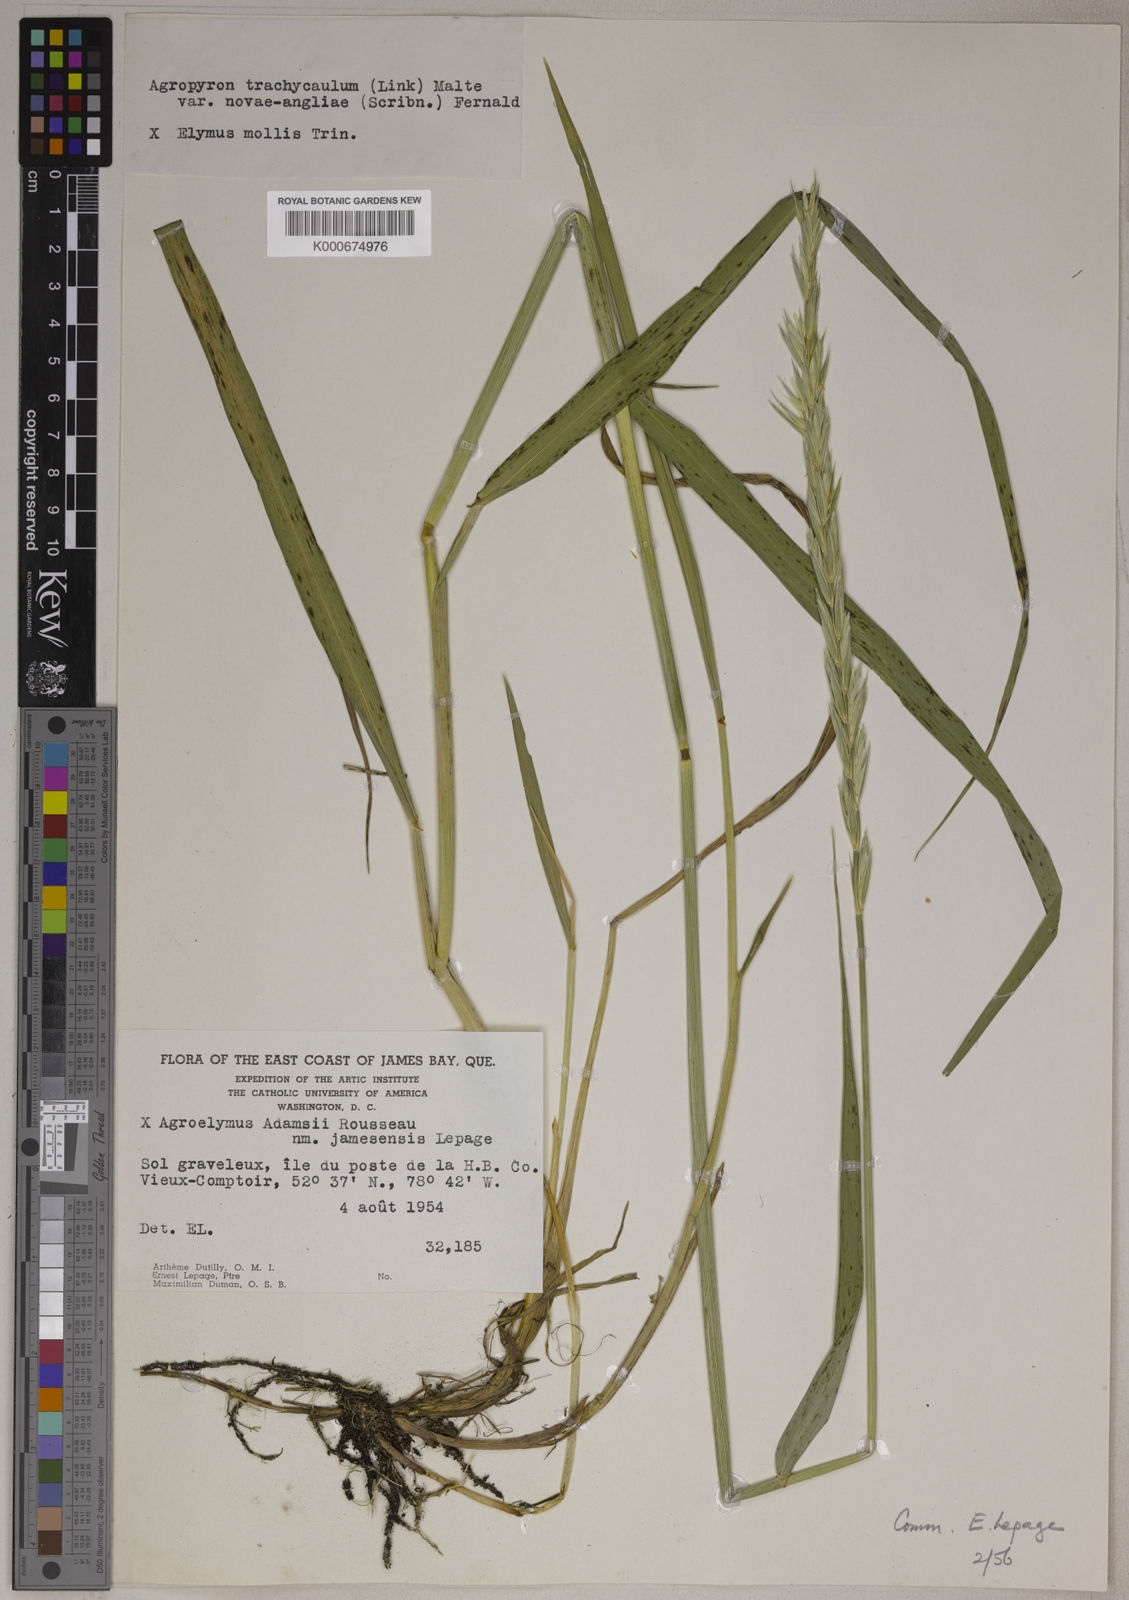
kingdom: Plantae
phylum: Tracheophyta
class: Liliopsida
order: Poales
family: Poaceae
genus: Elymus
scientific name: Elymus
